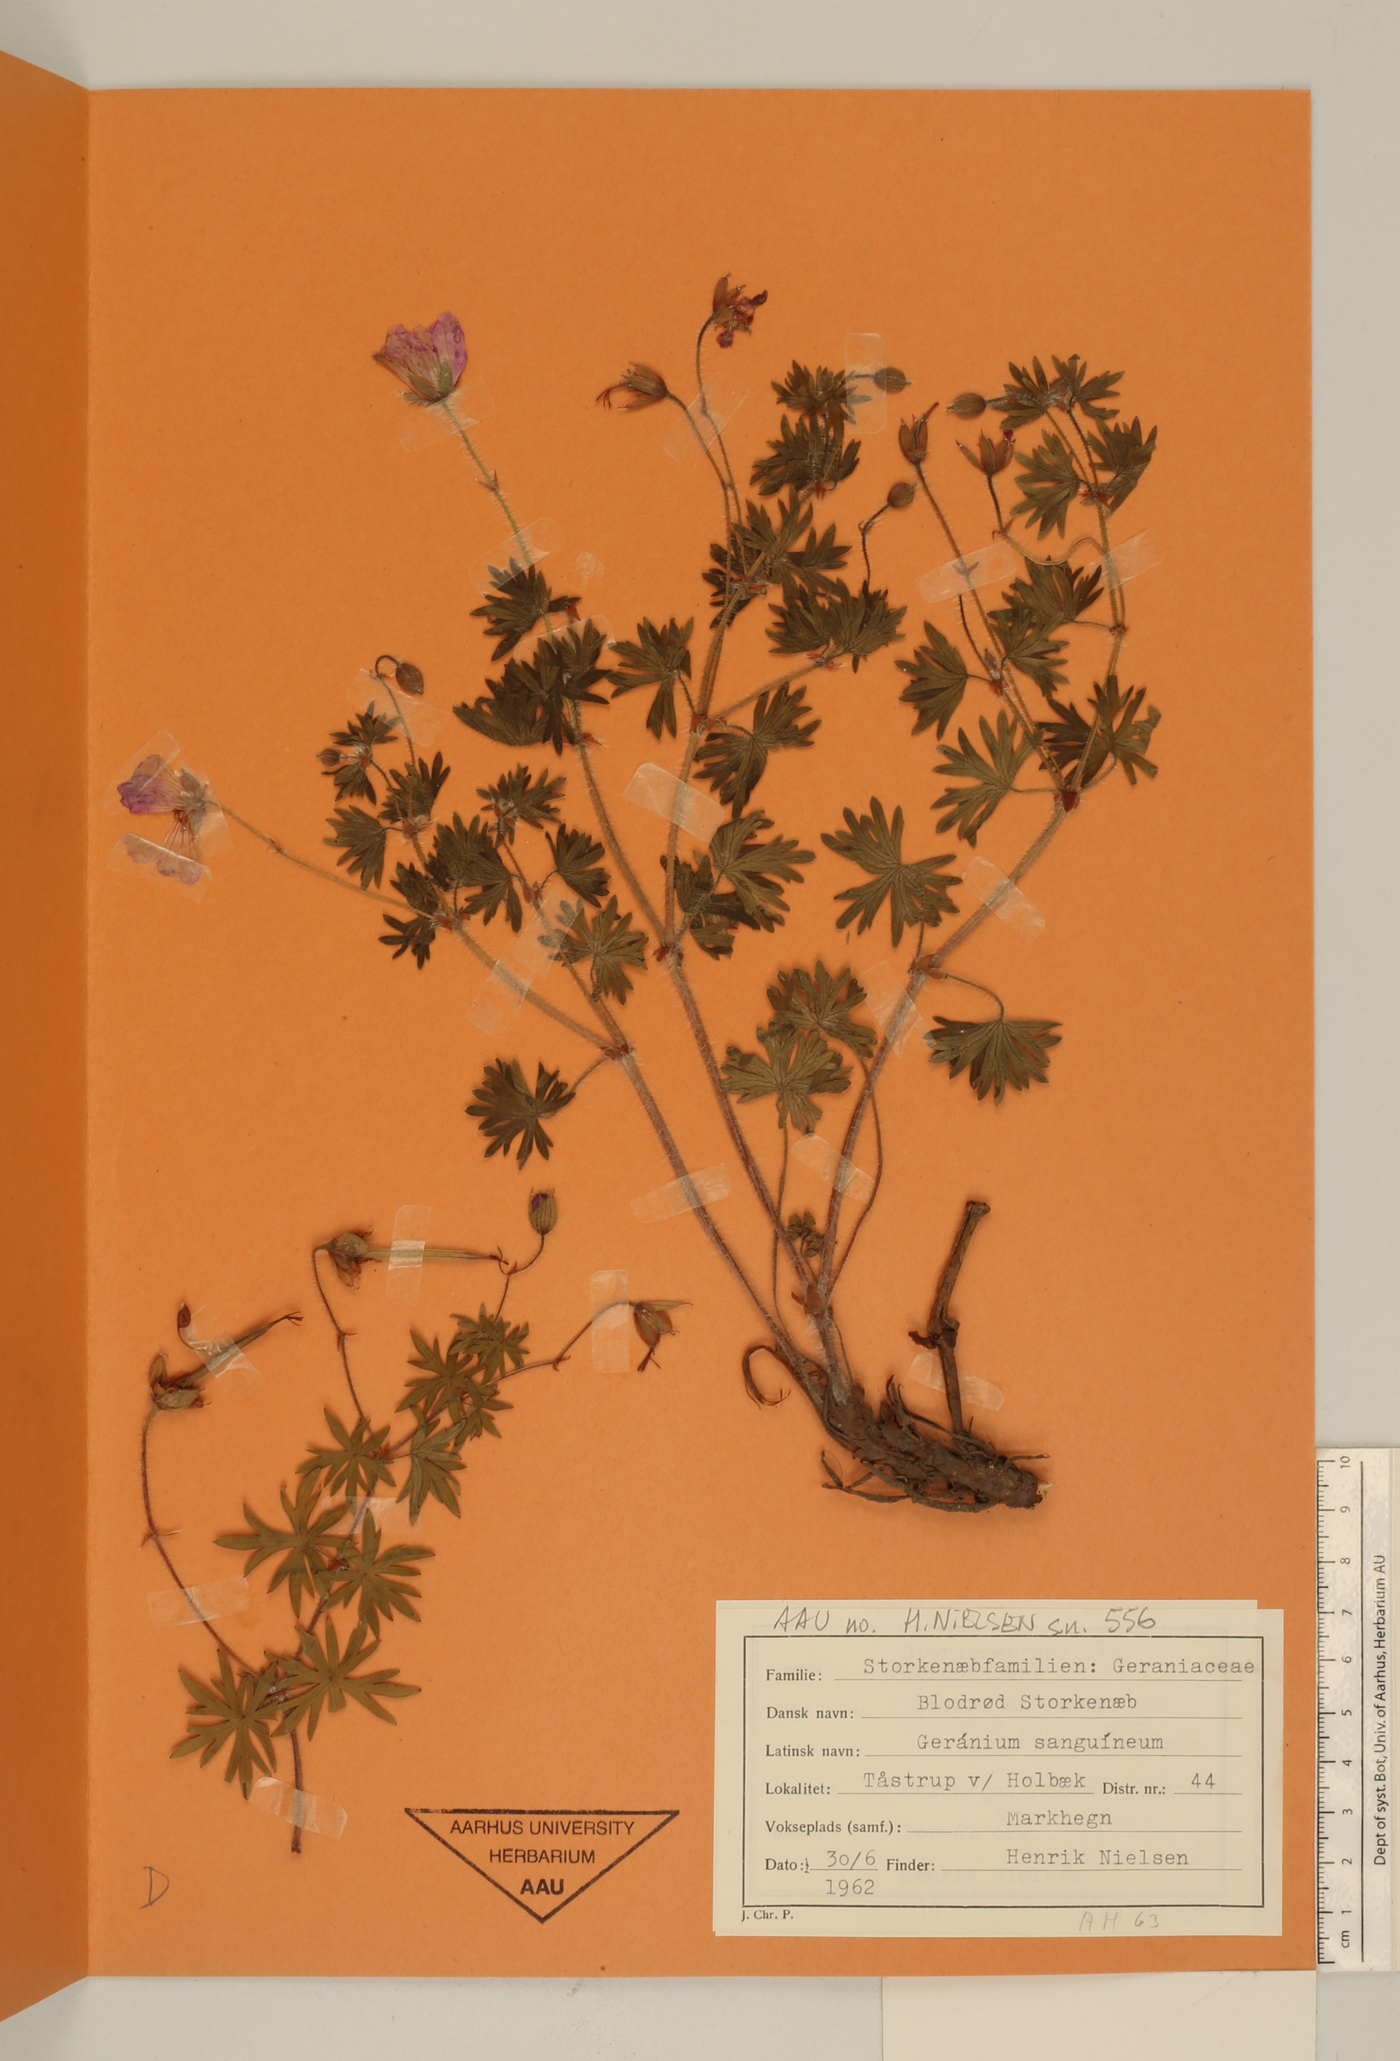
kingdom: Plantae
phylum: Tracheophyta
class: Magnoliopsida
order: Geraniales
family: Geraniaceae
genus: Geranium
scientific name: Geranium sanguineum
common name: Bloody crane's-bill
